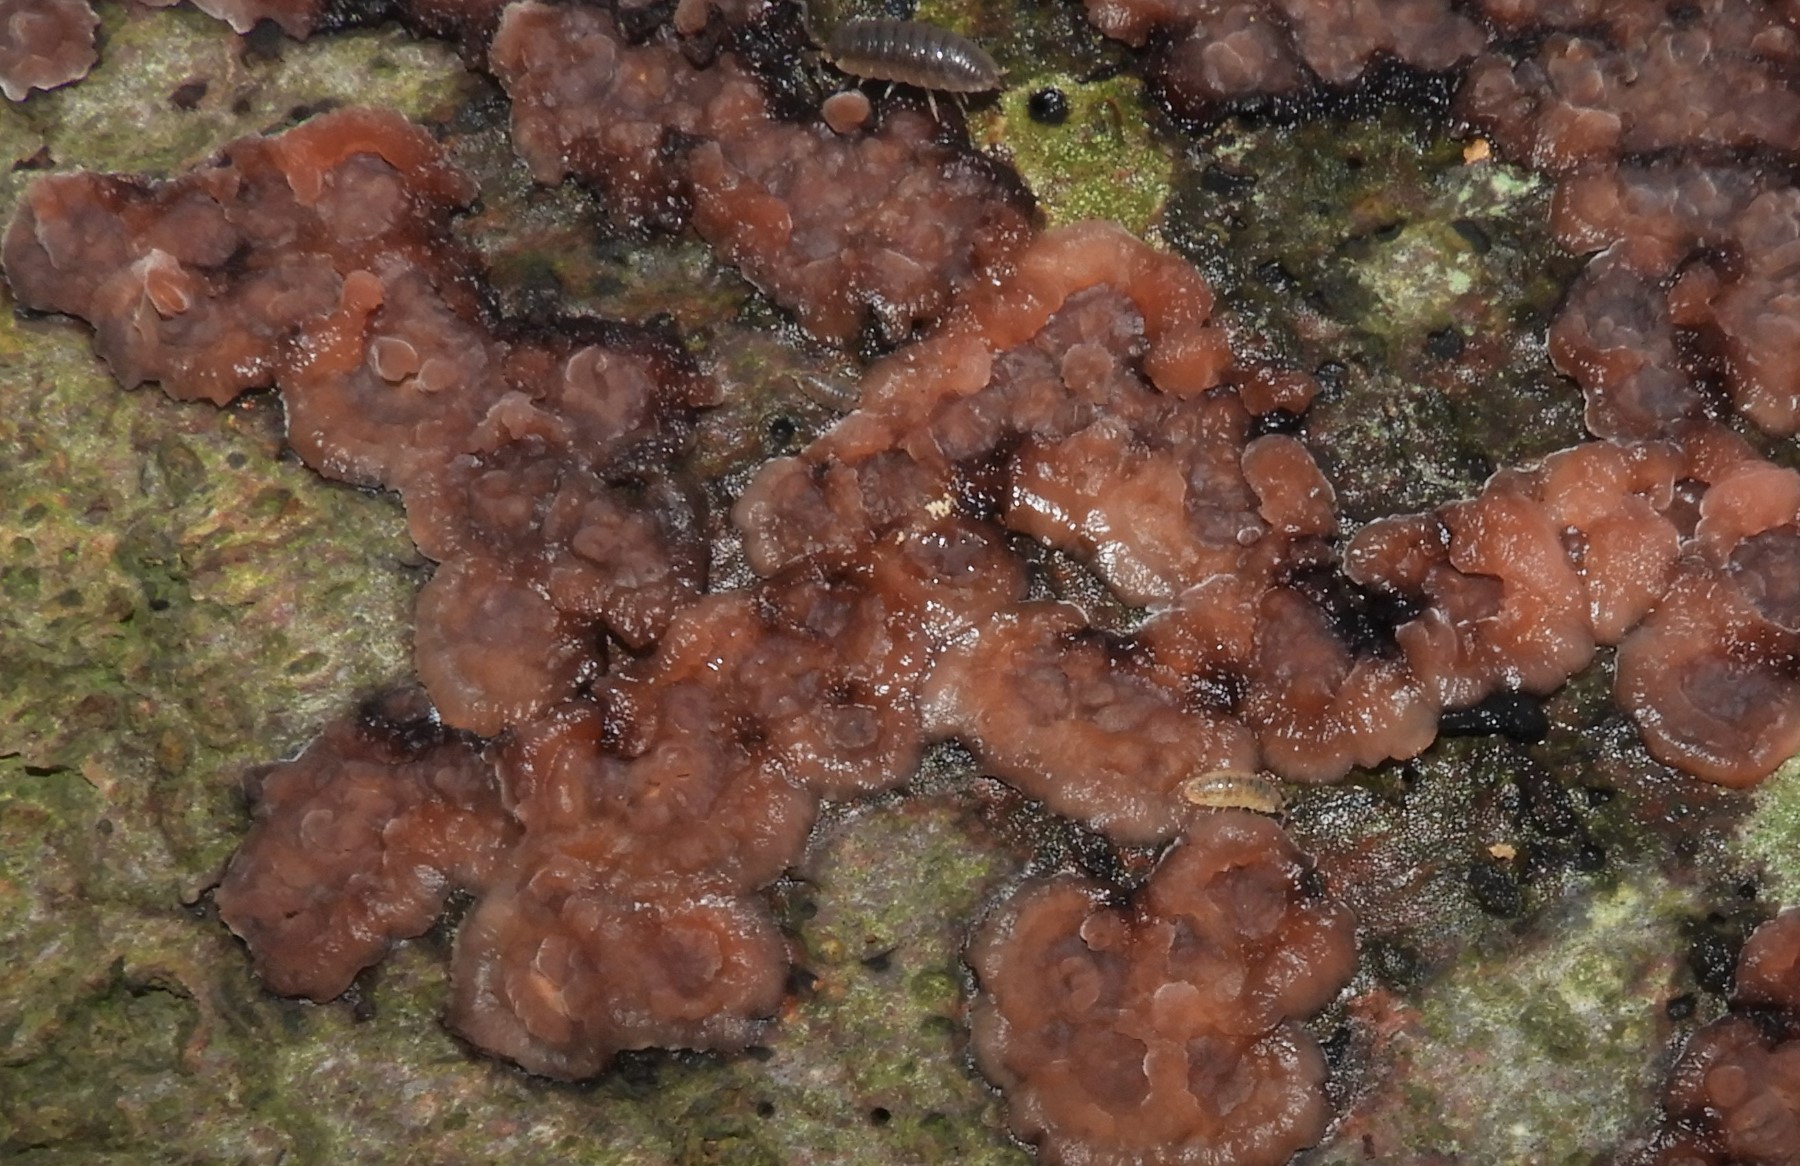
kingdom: Fungi
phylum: Basidiomycota
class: Agaricomycetes
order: Russulales
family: Peniophoraceae
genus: Peniophora
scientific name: Peniophora quercina
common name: ege-voksskind
